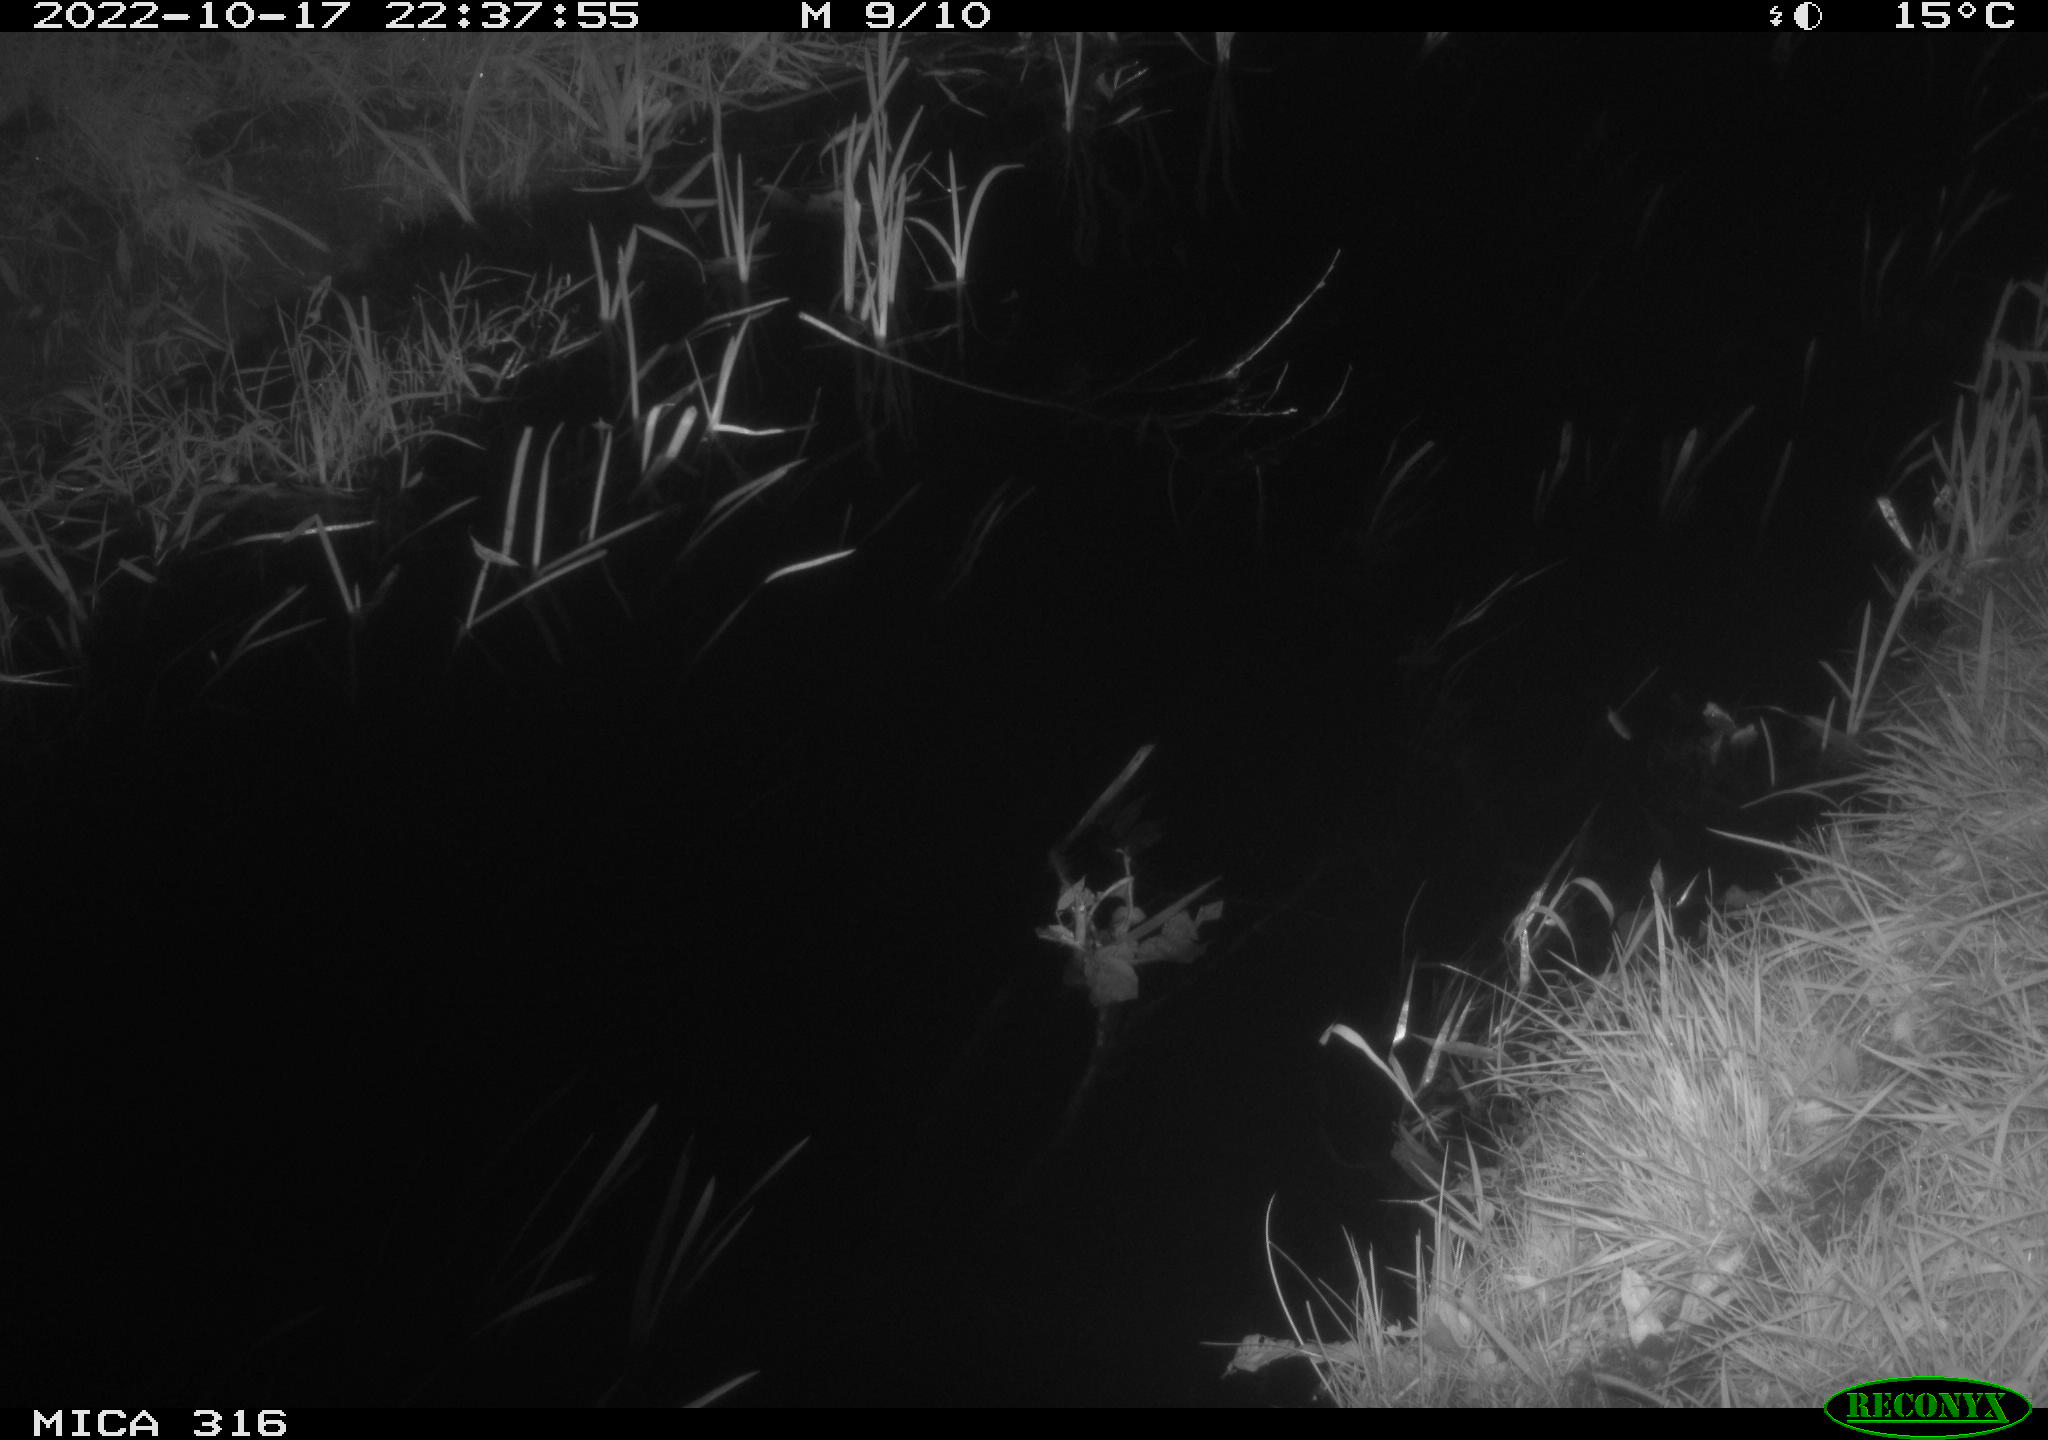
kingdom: Animalia
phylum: Chordata
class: Mammalia
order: Rodentia
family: Muridae
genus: Rattus
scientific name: Rattus norvegicus
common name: Brown rat
